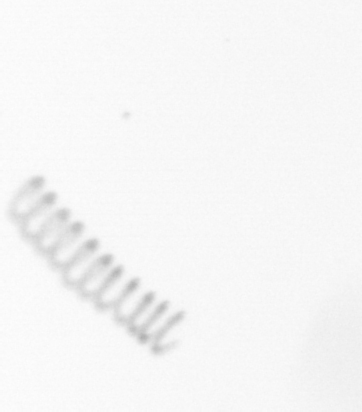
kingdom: Chromista
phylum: Ochrophyta
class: Bacillariophyceae
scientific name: Bacillariophyceae
